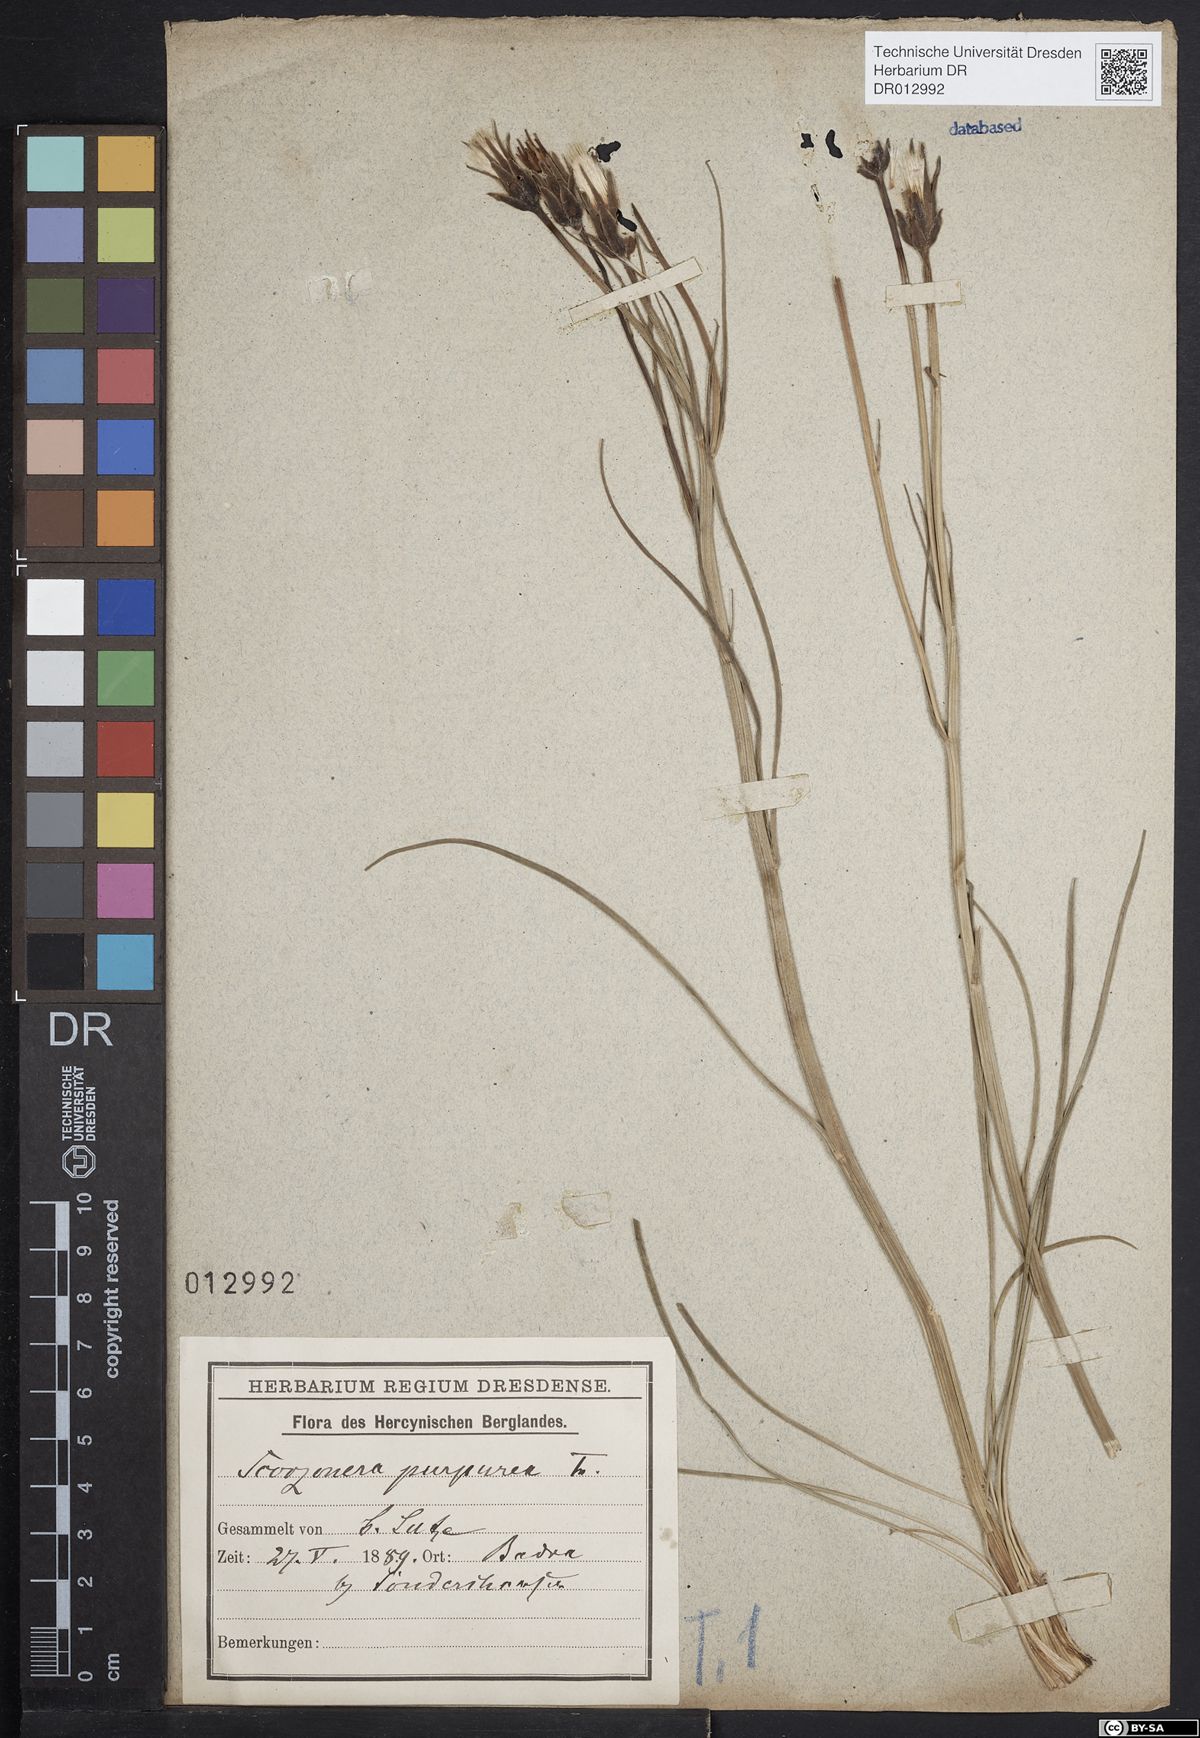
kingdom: Plantae
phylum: Tracheophyta
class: Magnoliopsida
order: Asterales
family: Asteraceae
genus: Scorzonera
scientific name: Scorzonera purpurea
